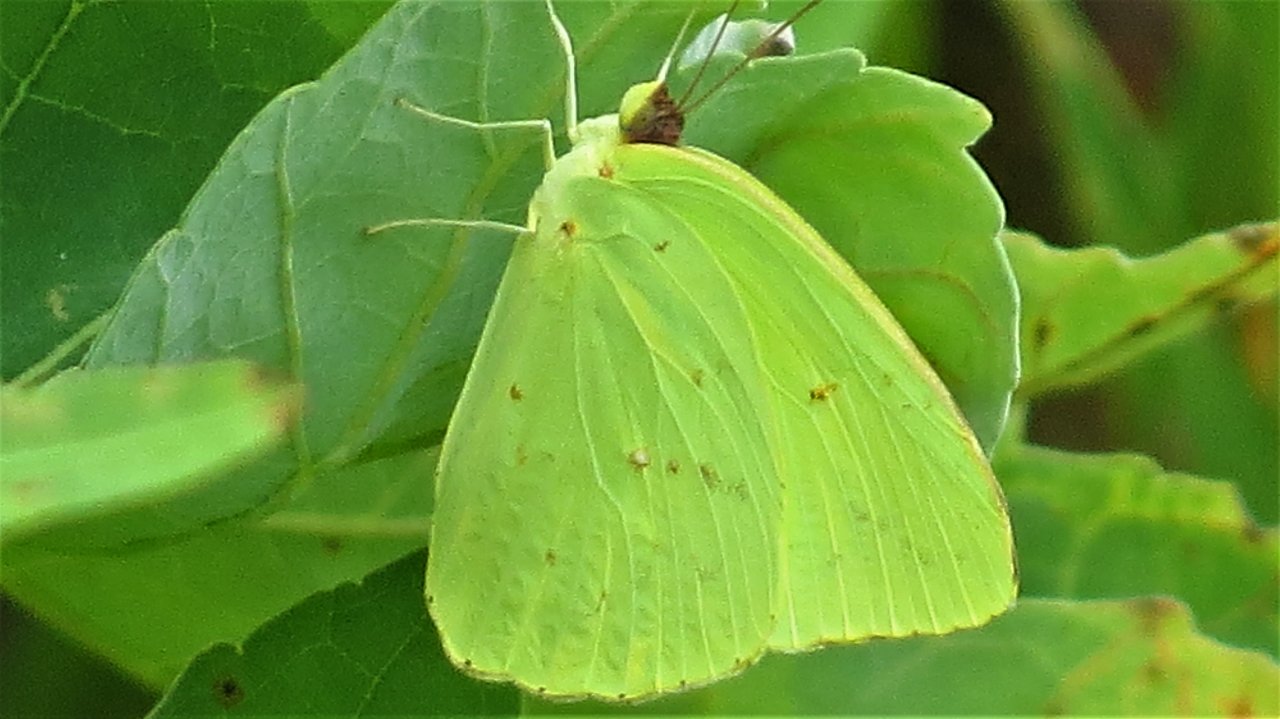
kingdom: Animalia
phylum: Arthropoda
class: Insecta
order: Lepidoptera
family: Pieridae
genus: Phoebis
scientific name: Phoebis sennae
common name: Cloudless Sulphur
